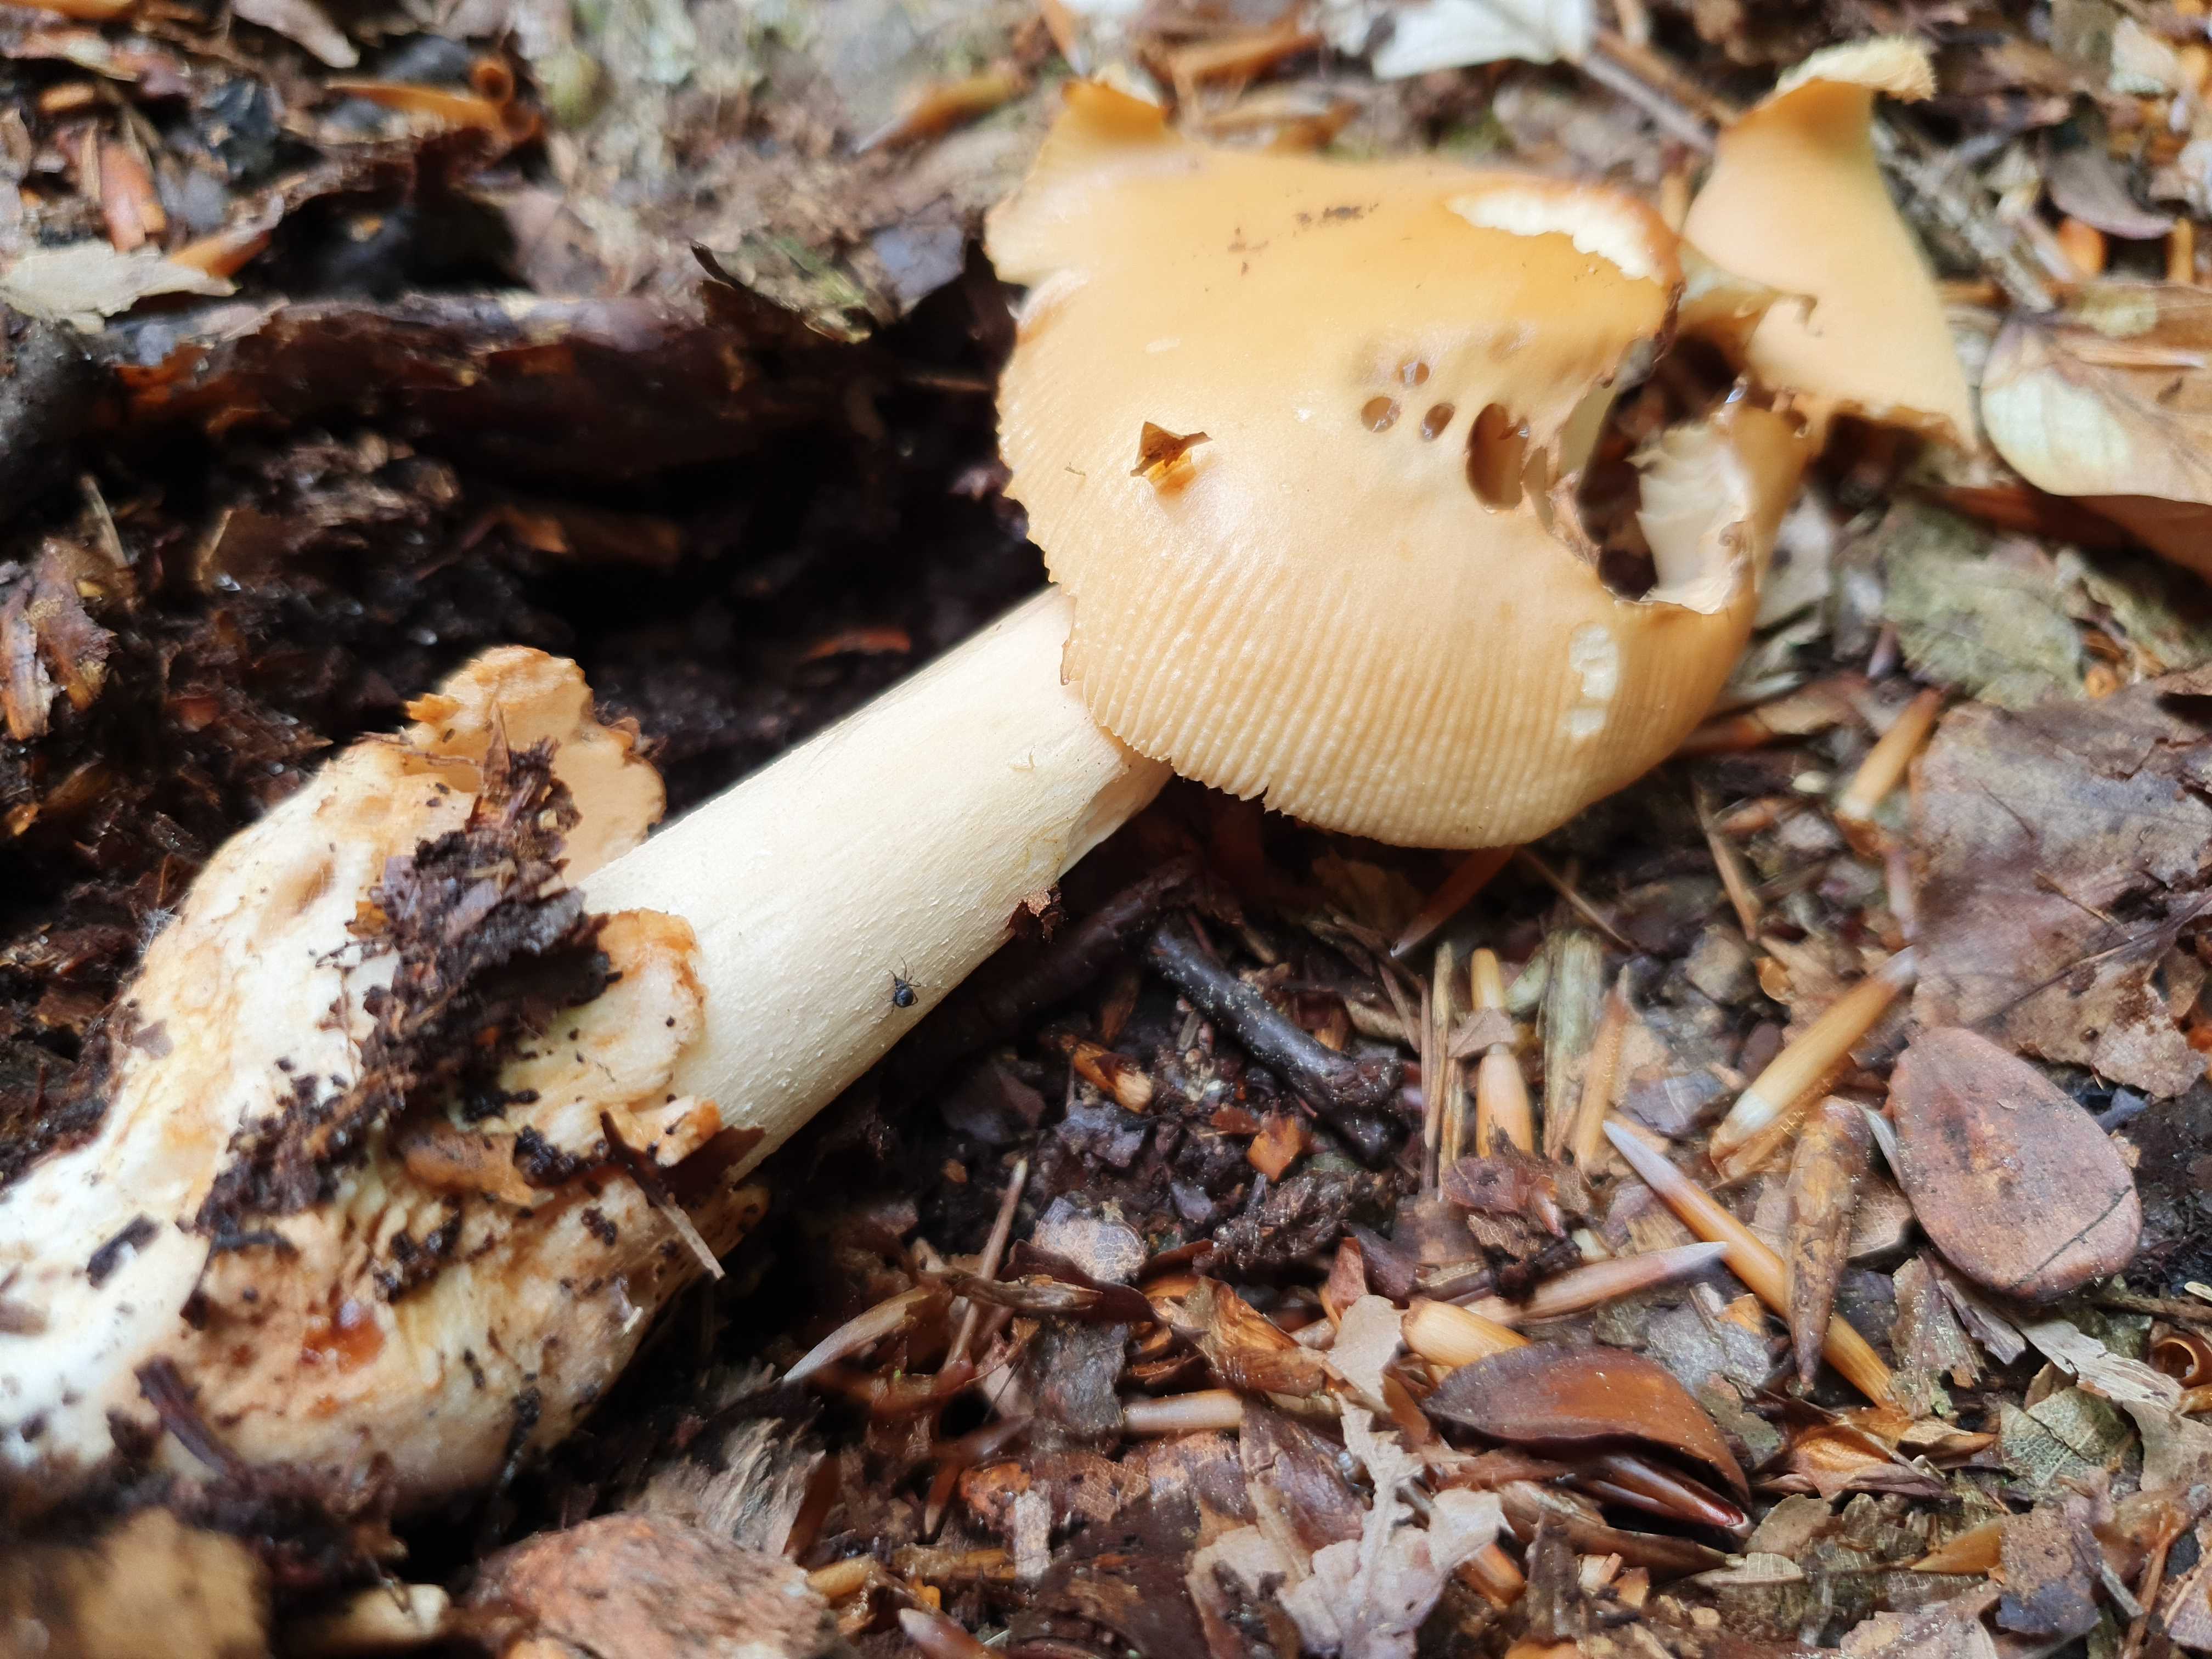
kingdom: Fungi
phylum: Basidiomycota
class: Agaricomycetes
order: Agaricales
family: Amanitaceae
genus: Amanita
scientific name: Amanita fulva
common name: brun kam-fluesvamp
